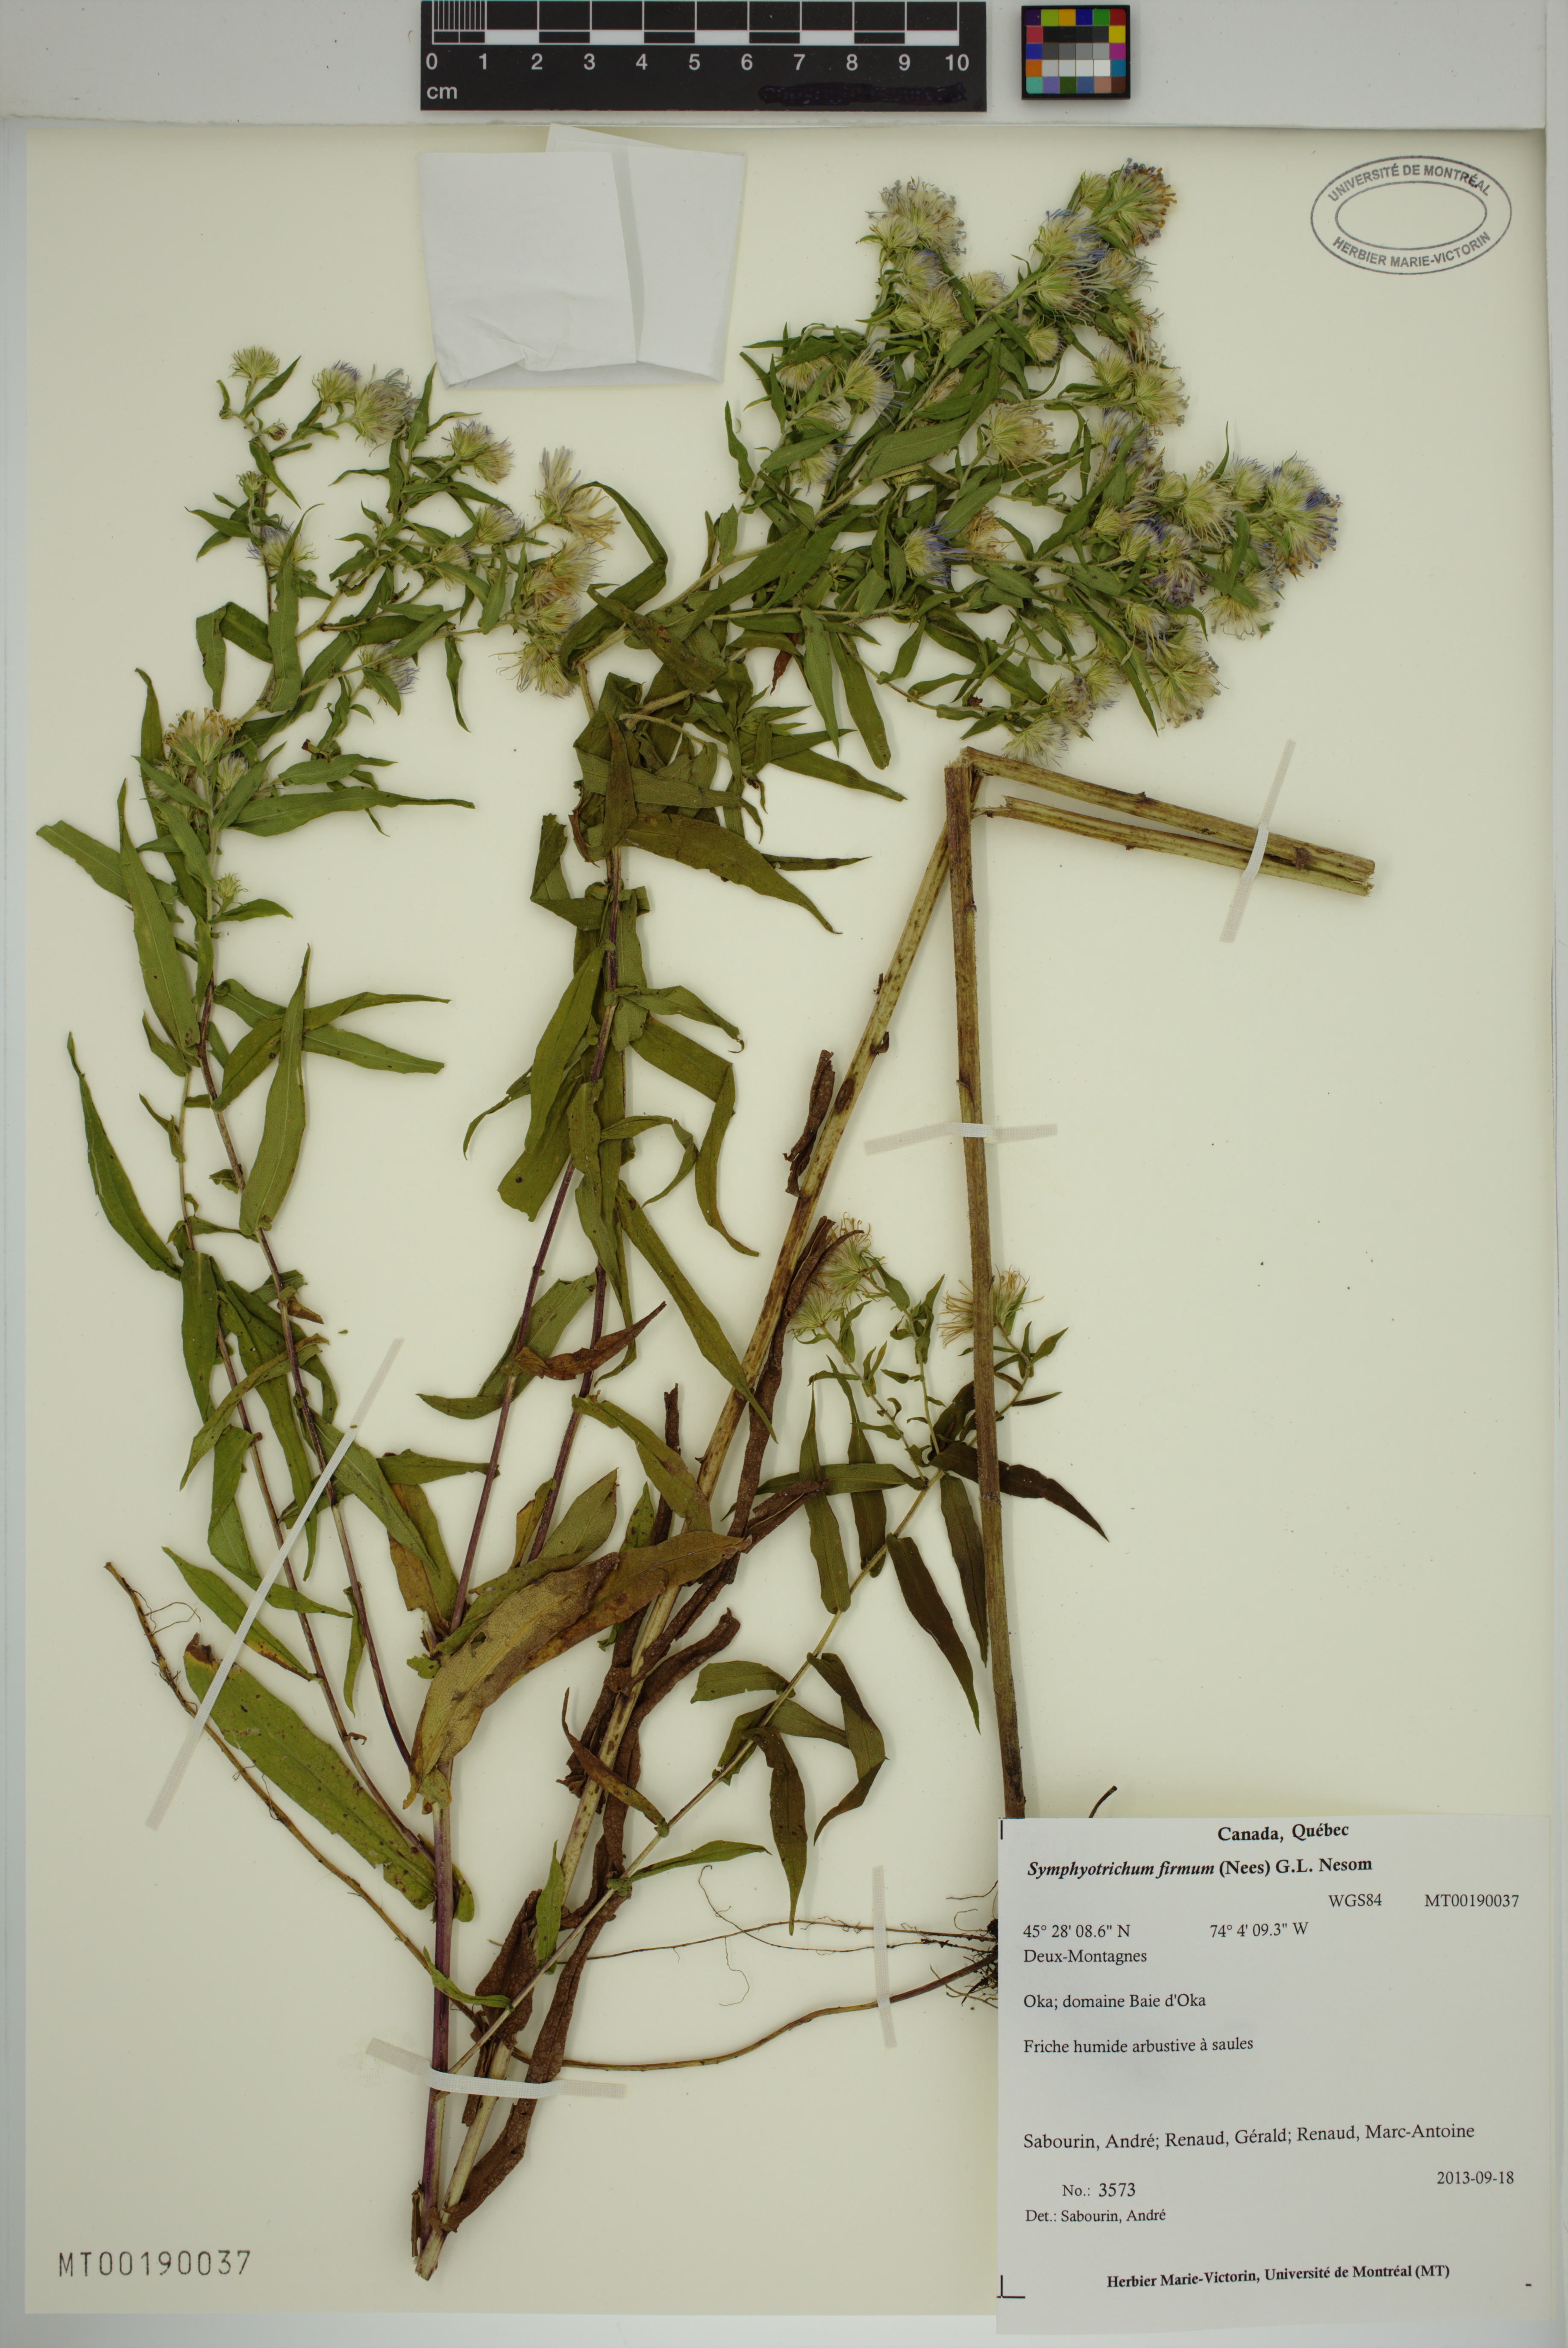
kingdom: Plantae
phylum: Tracheophyta
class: Magnoliopsida
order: Asterales
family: Asteraceae
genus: Symphyotrichum
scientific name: Symphyotrichum firmum
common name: Shining aster
